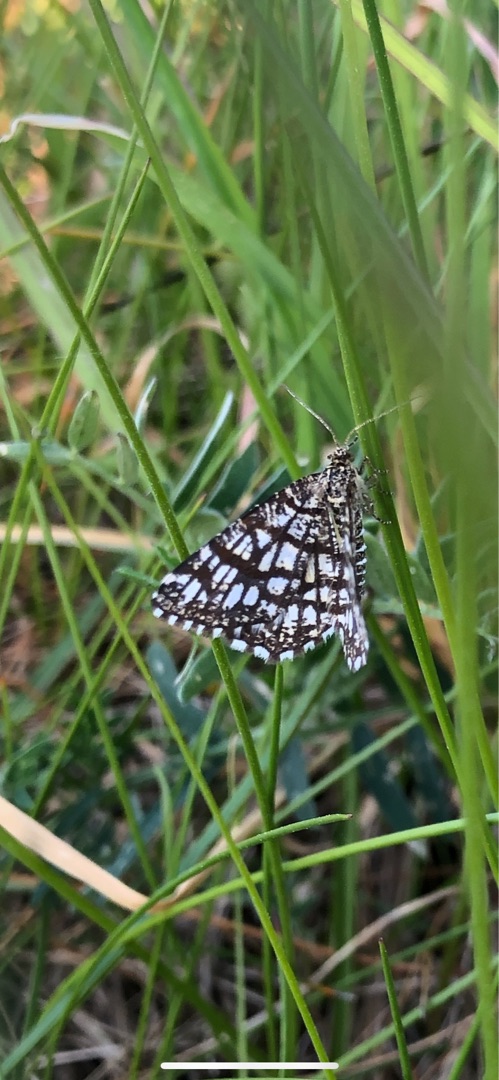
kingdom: Animalia
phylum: Arthropoda
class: Insecta
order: Lepidoptera
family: Geometridae
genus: Chiasmia
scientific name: Chiasmia clathrata
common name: Kløvermåler
